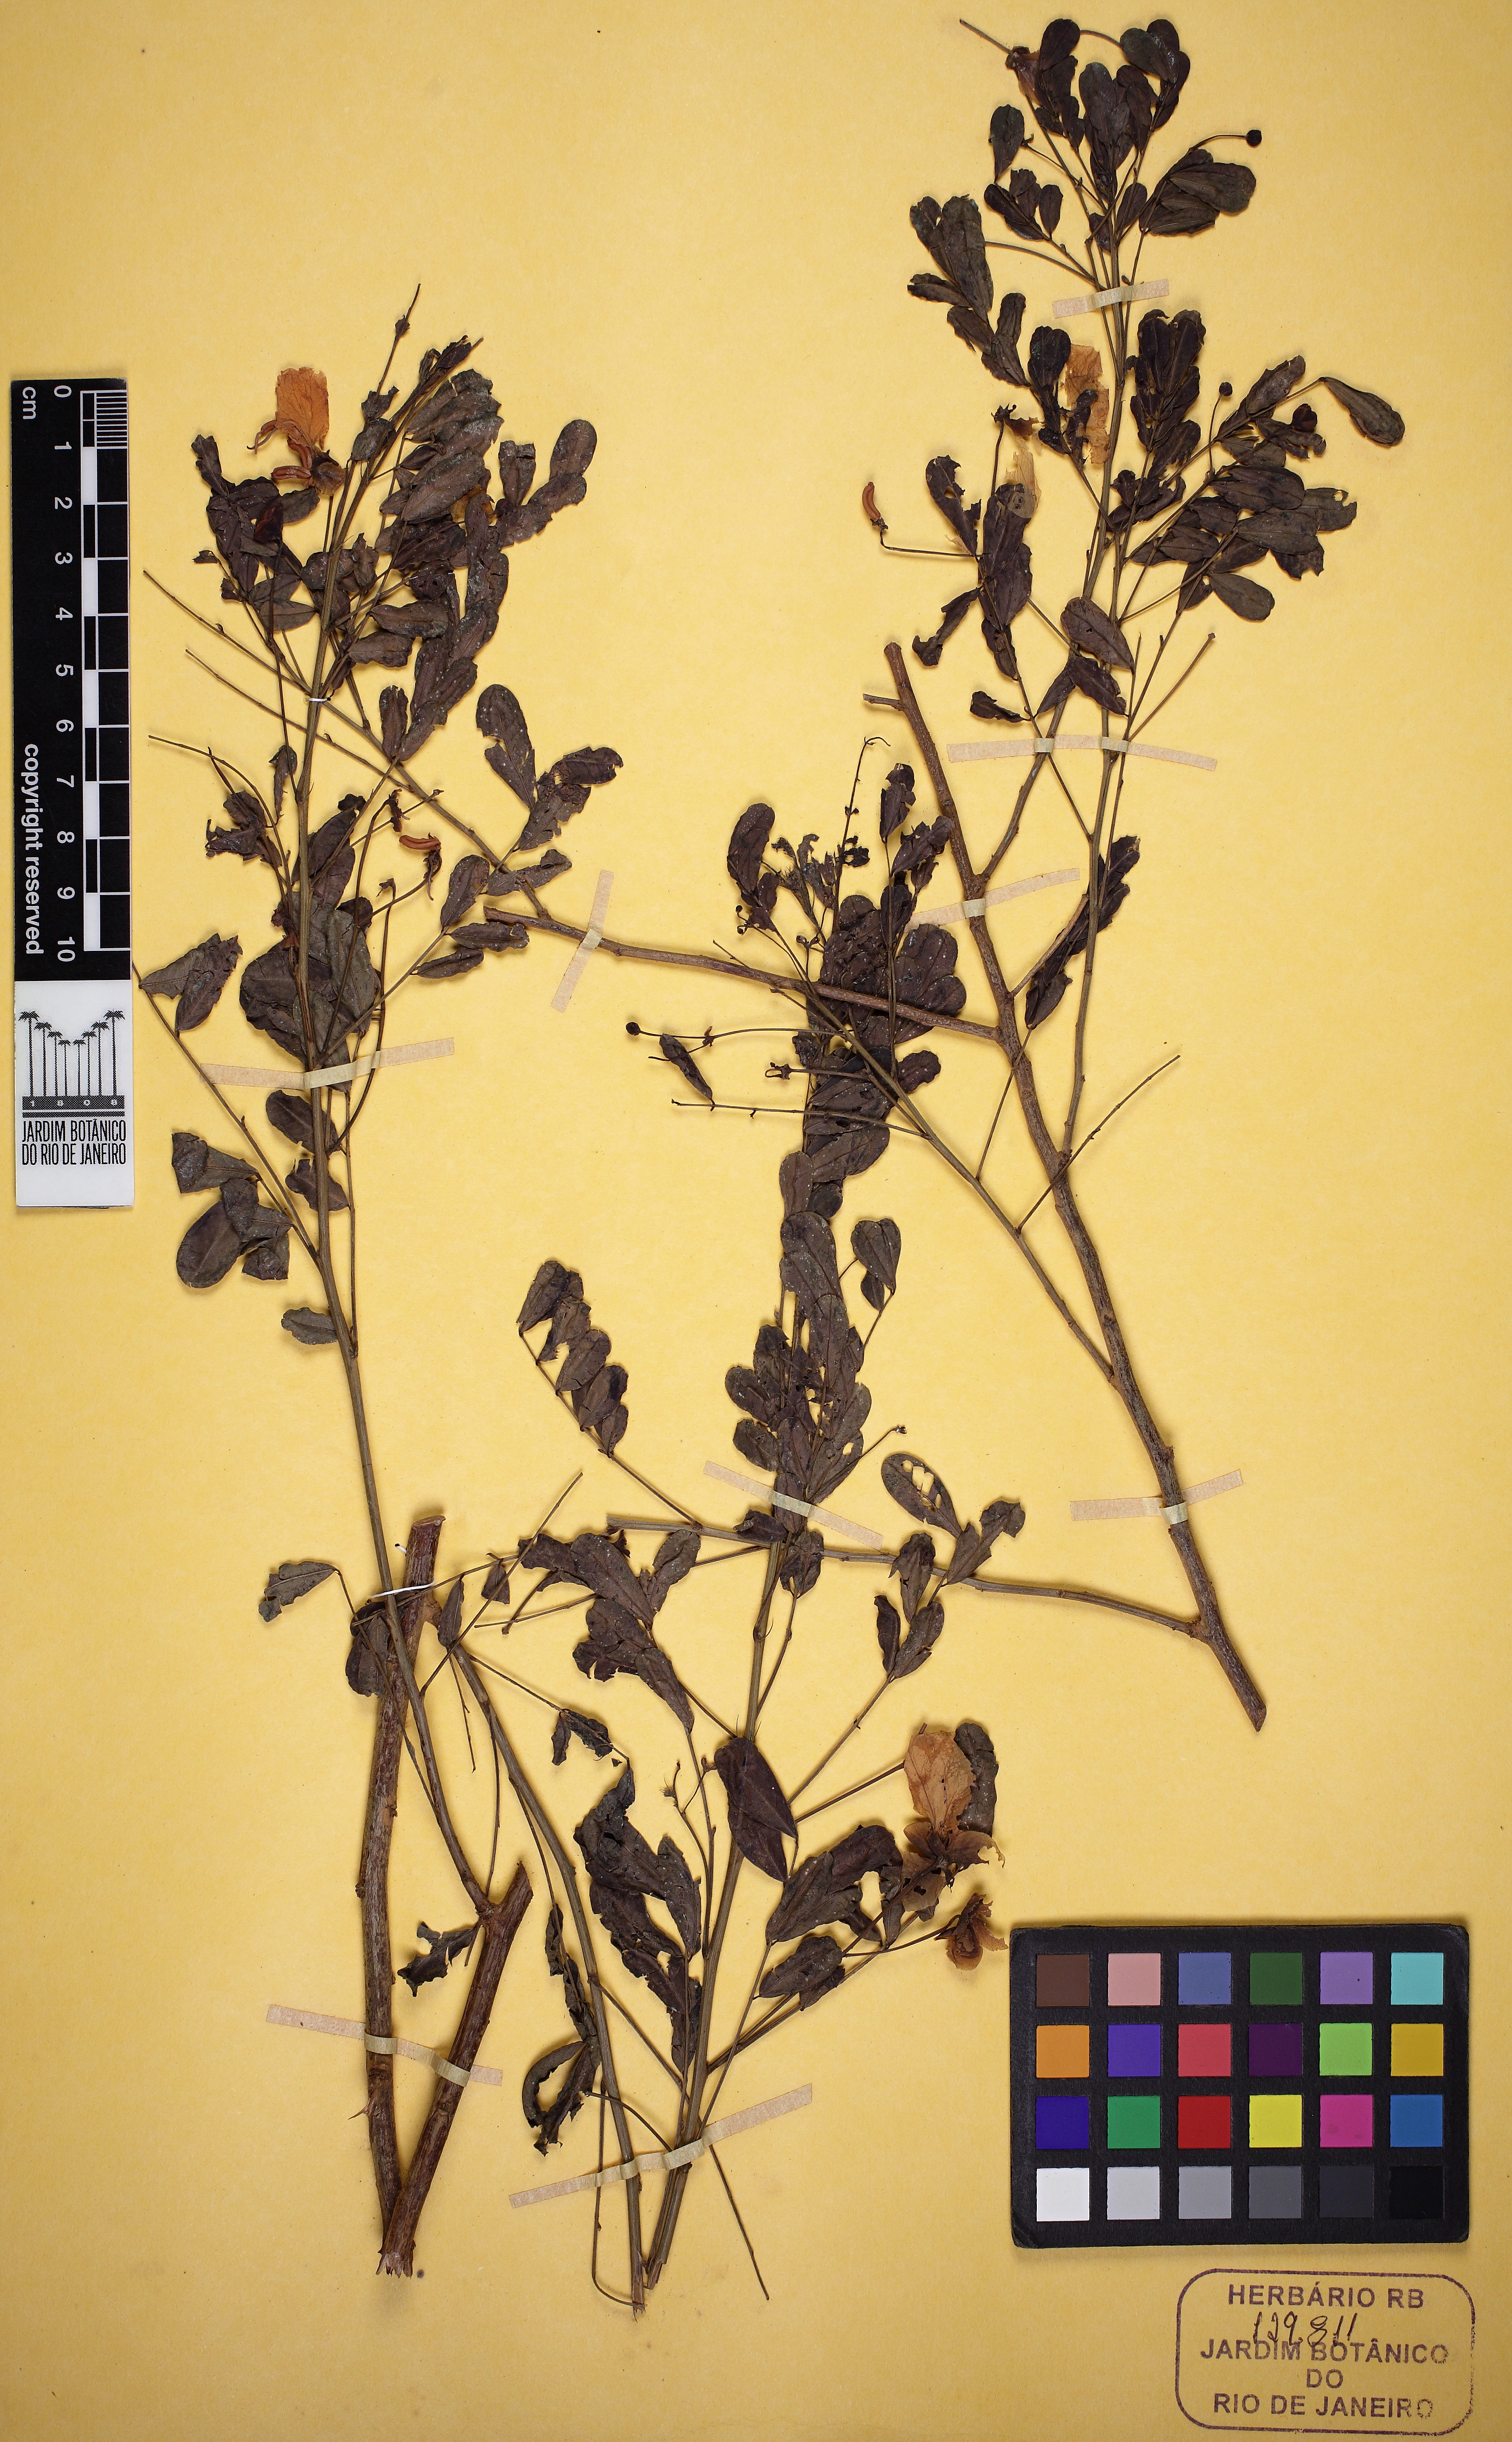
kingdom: Plantae
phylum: Tracheophyta
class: Magnoliopsida
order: Fabales
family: Fabaceae
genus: Senna
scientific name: Senna rostrata
